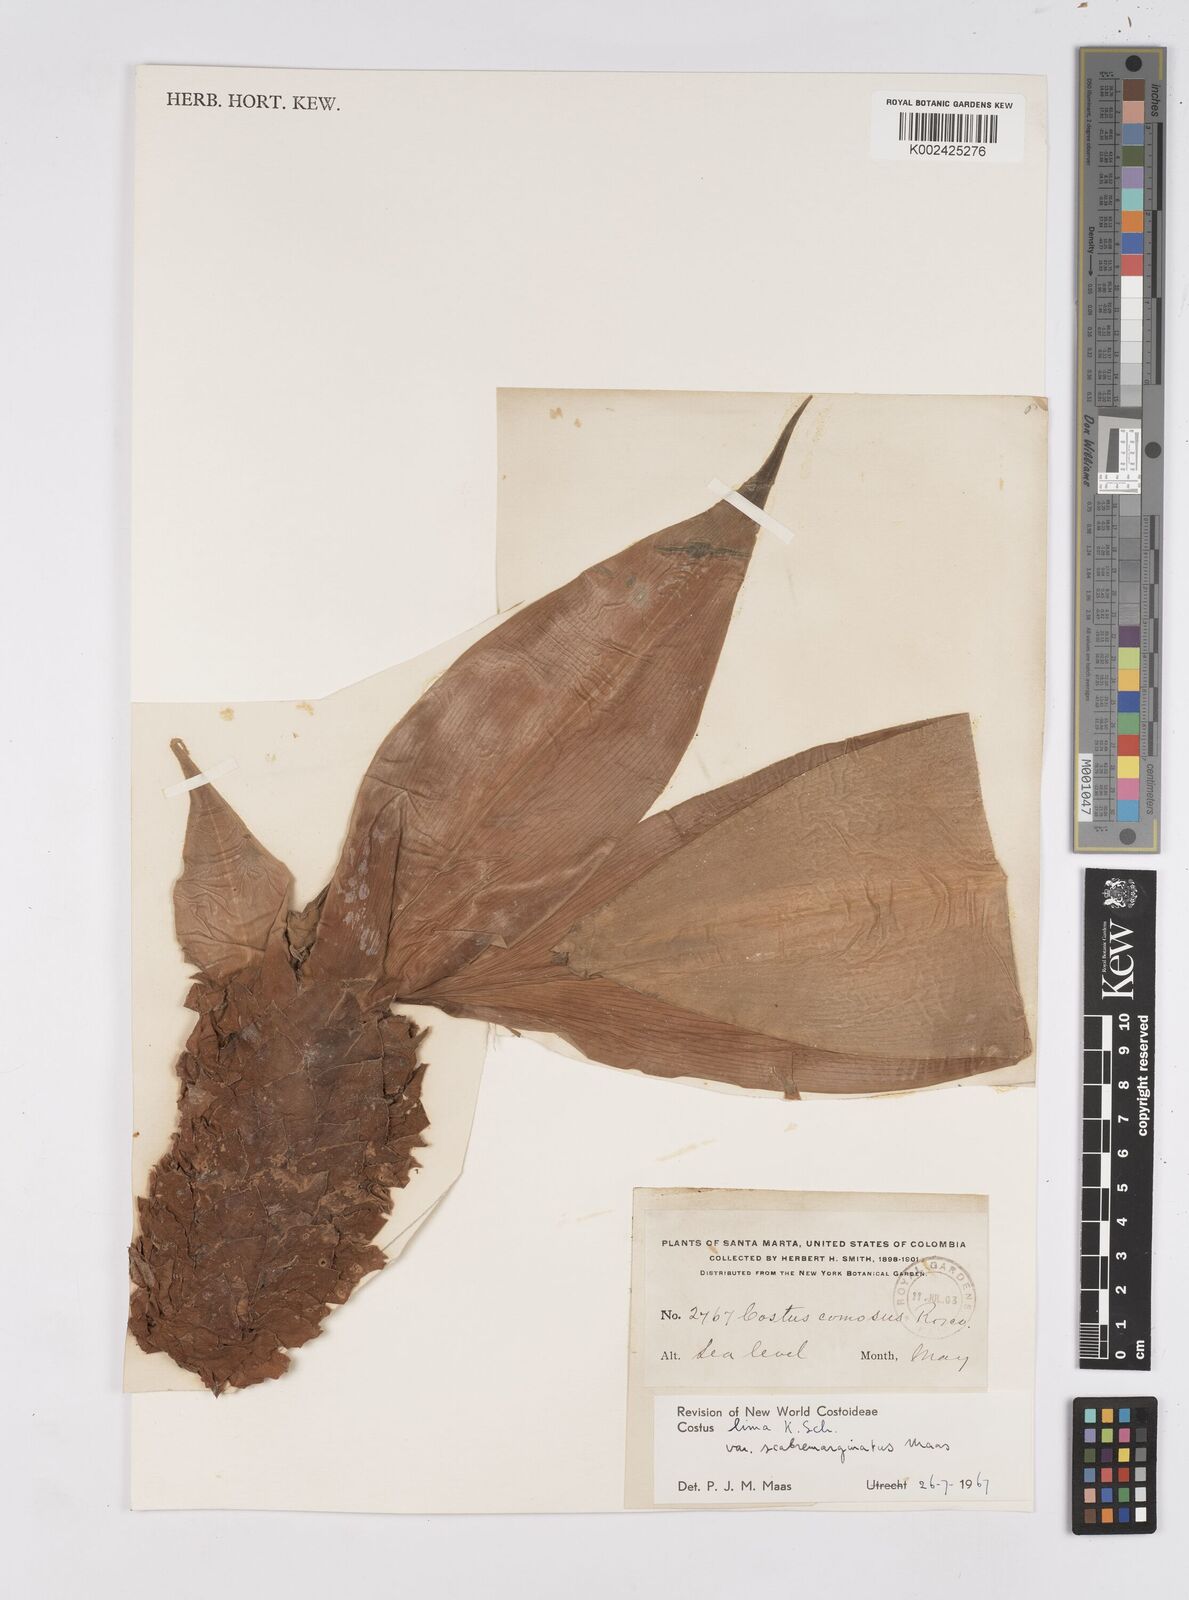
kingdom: Plantae
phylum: Tracheophyta
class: Liliopsida
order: Zingiberales
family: Costaceae
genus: Costus
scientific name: Costus lima
